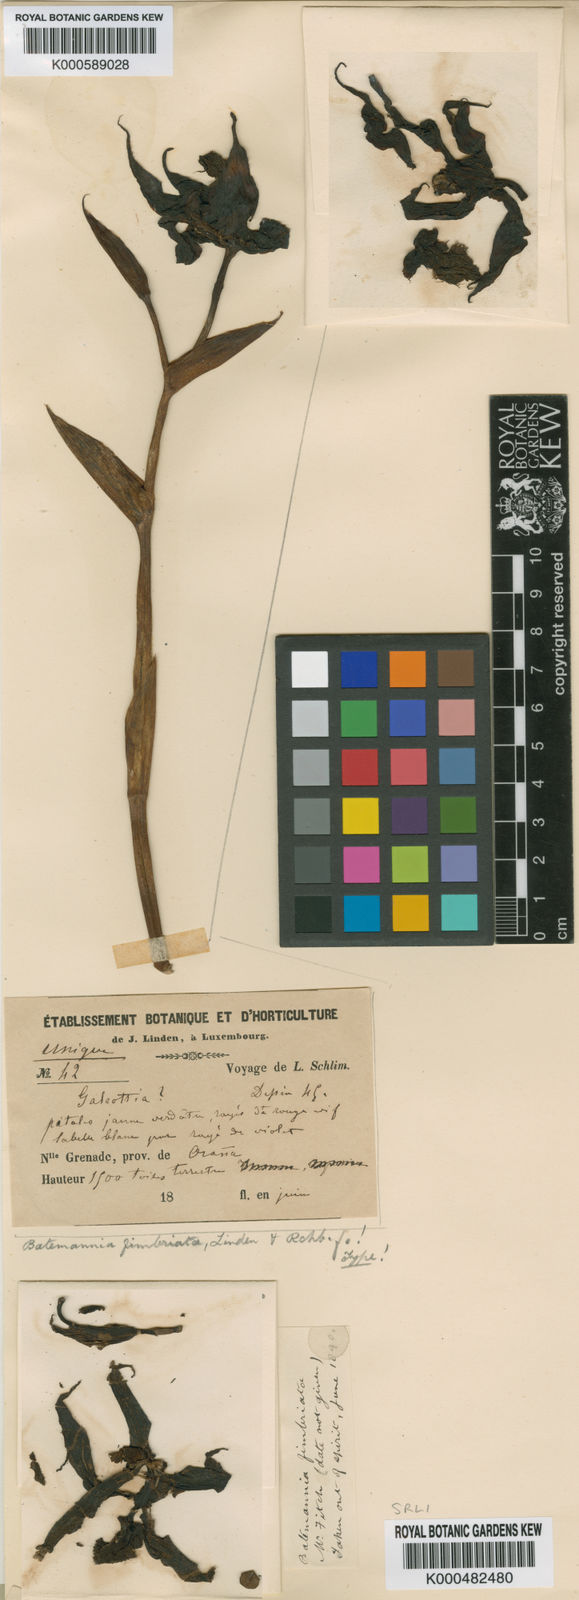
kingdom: Plantae
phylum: Tracheophyta
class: Liliopsida
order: Asparagales
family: Orchidaceae
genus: Galeottia
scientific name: Galeottia fimbriata
